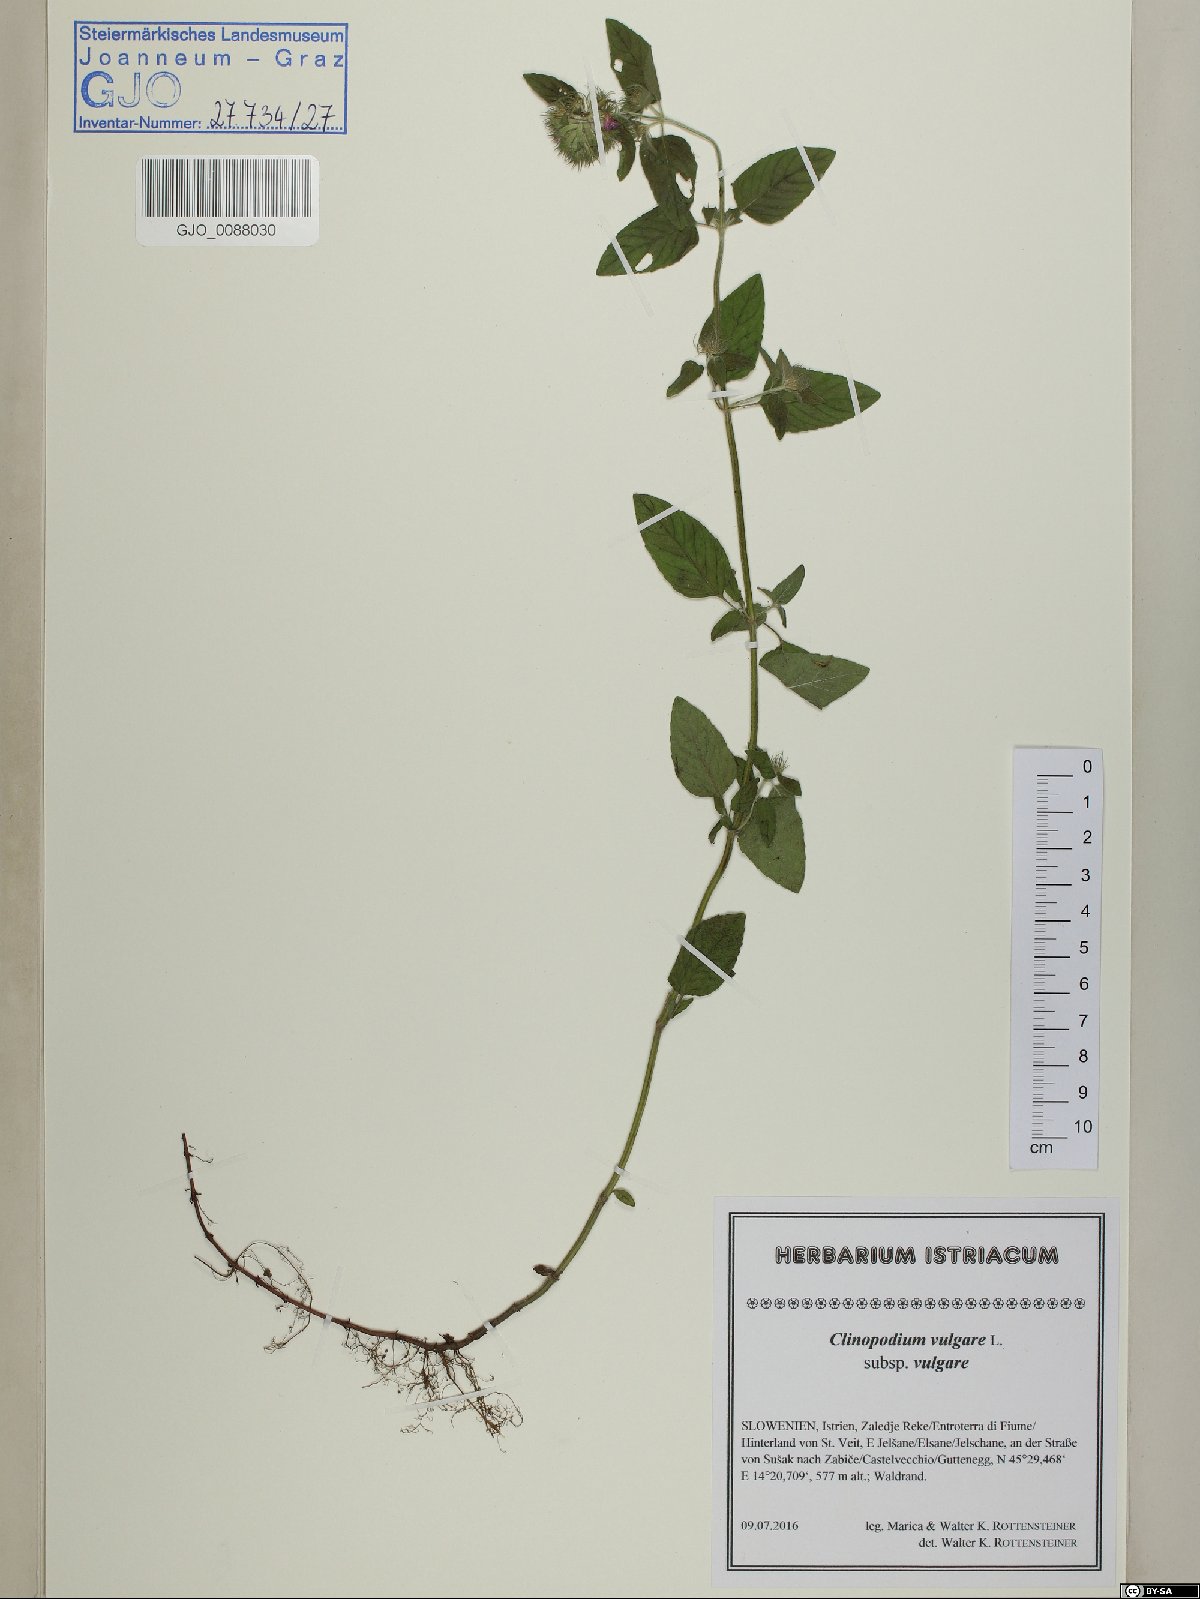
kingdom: Plantae
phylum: Tracheophyta
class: Magnoliopsida
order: Lamiales
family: Lamiaceae
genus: Clinopodium
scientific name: Clinopodium vulgare
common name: Wild basil
